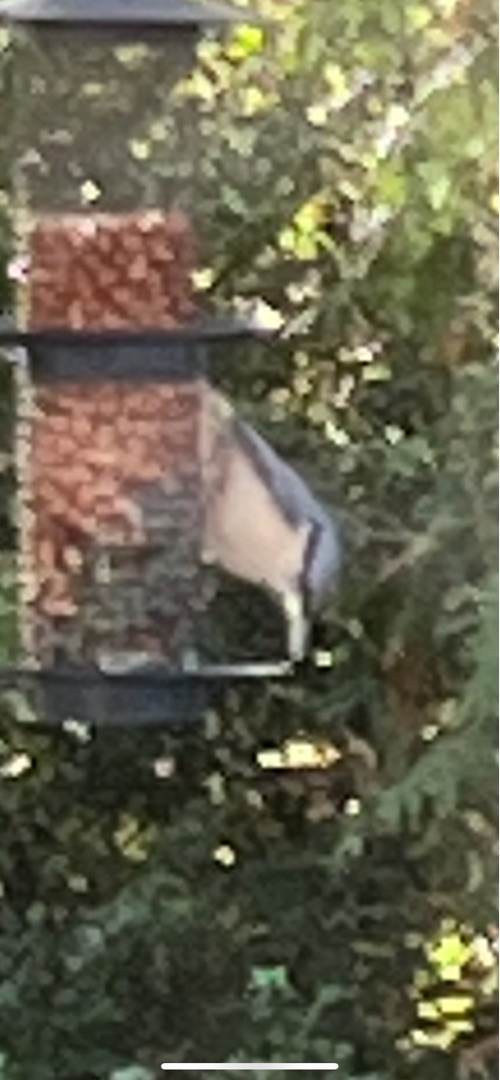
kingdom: Animalia
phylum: Chordata
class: Aves
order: Passeriformes
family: Sittidae
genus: Sitta
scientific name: Sitta europaea
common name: Spætmejse
